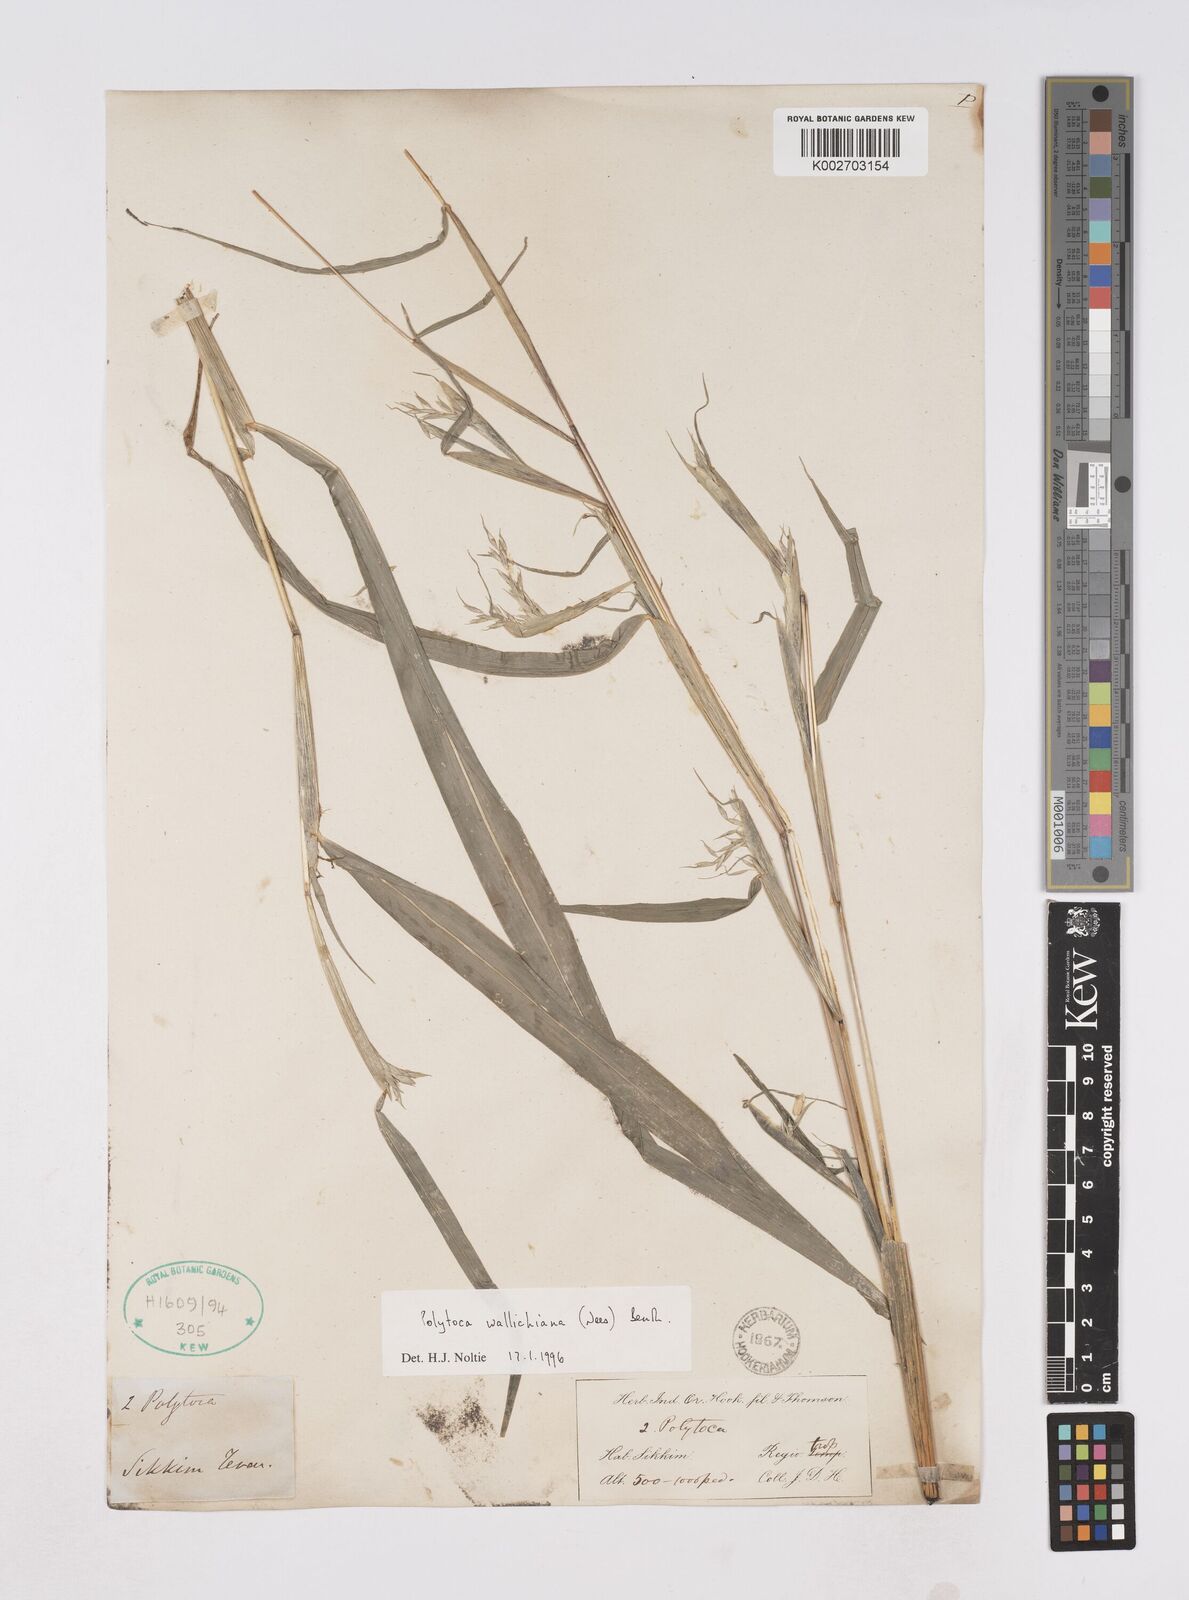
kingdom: Plantae
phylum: Tracheophyta
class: Liliopsida
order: Poales
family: Poaceae
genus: Polytoca
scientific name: Polytoca wallichiana
